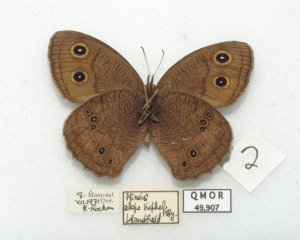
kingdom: Animalia
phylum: Arthropoda
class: Insecta
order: Lepidoptera
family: Nymphalidae
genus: Cercyonis
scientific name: Cercyonis pegala
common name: Common Wood-Nymph
